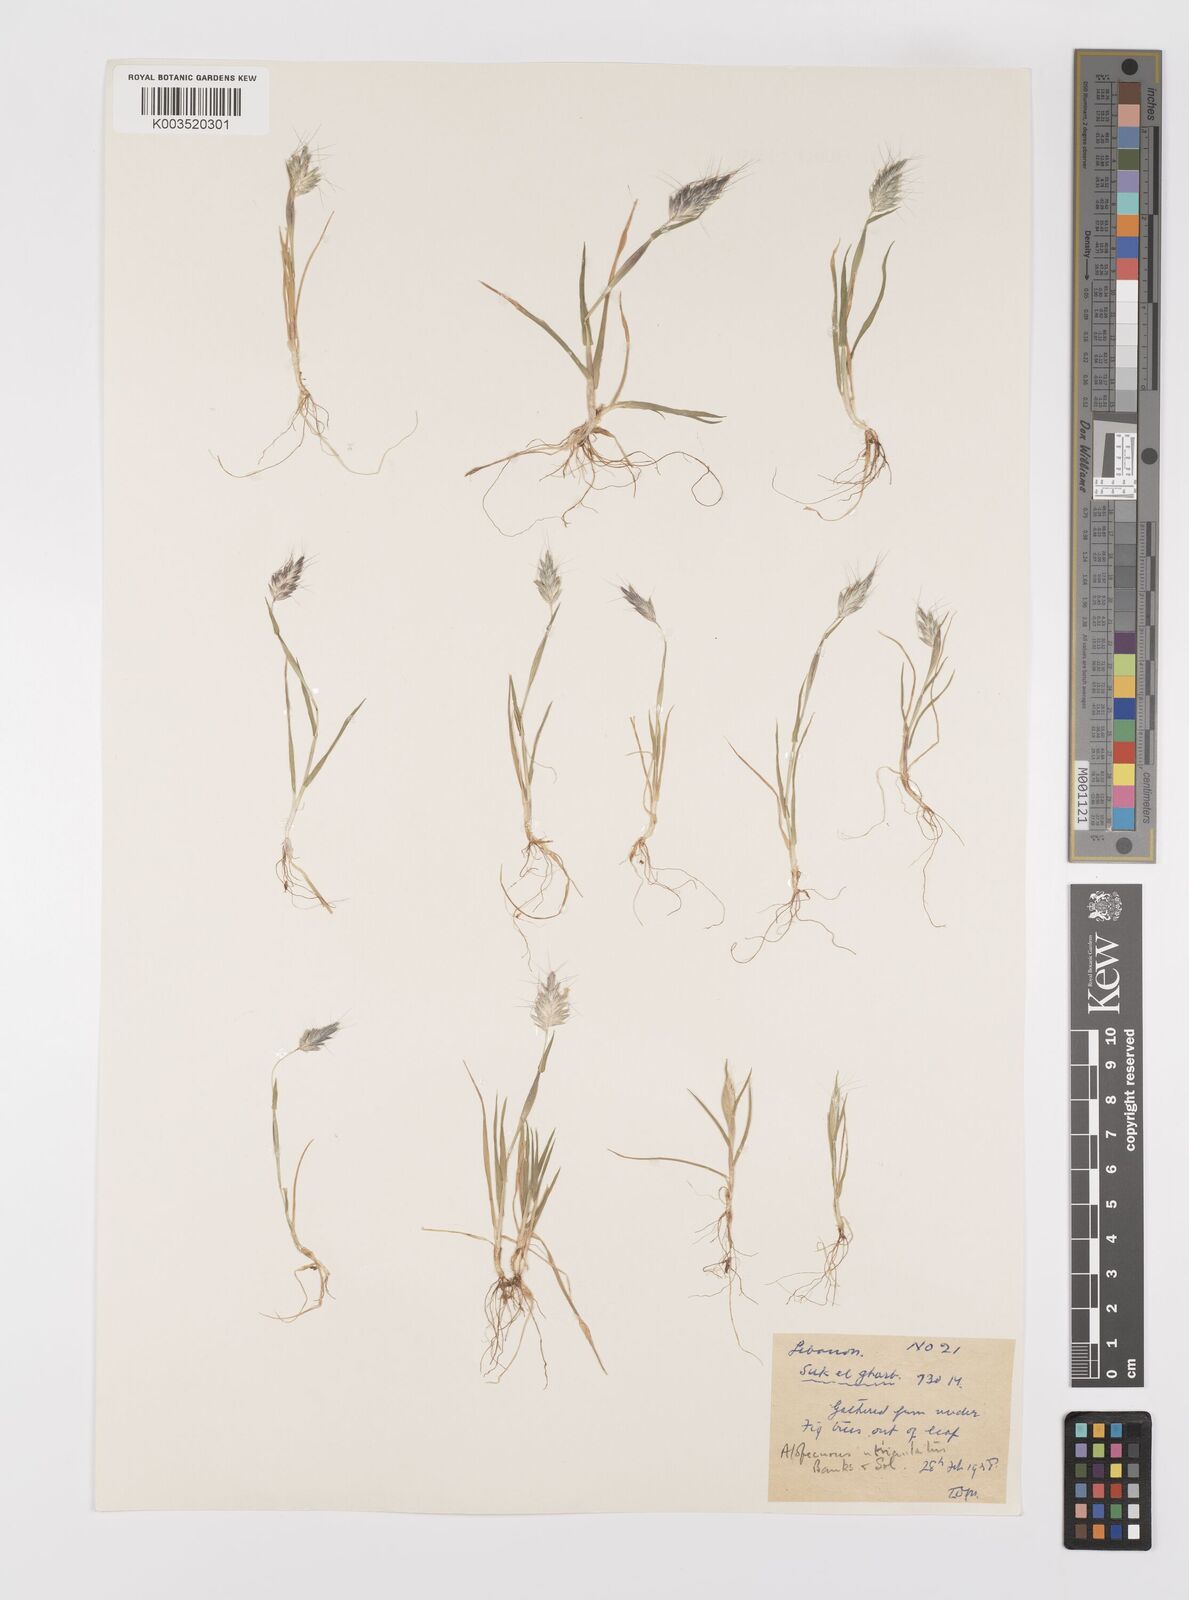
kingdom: Plantae
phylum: Tracheophyta
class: Liliopsida
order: Poales
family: Poaceae
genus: Alopecurus
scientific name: Alopecurus utriculatus
